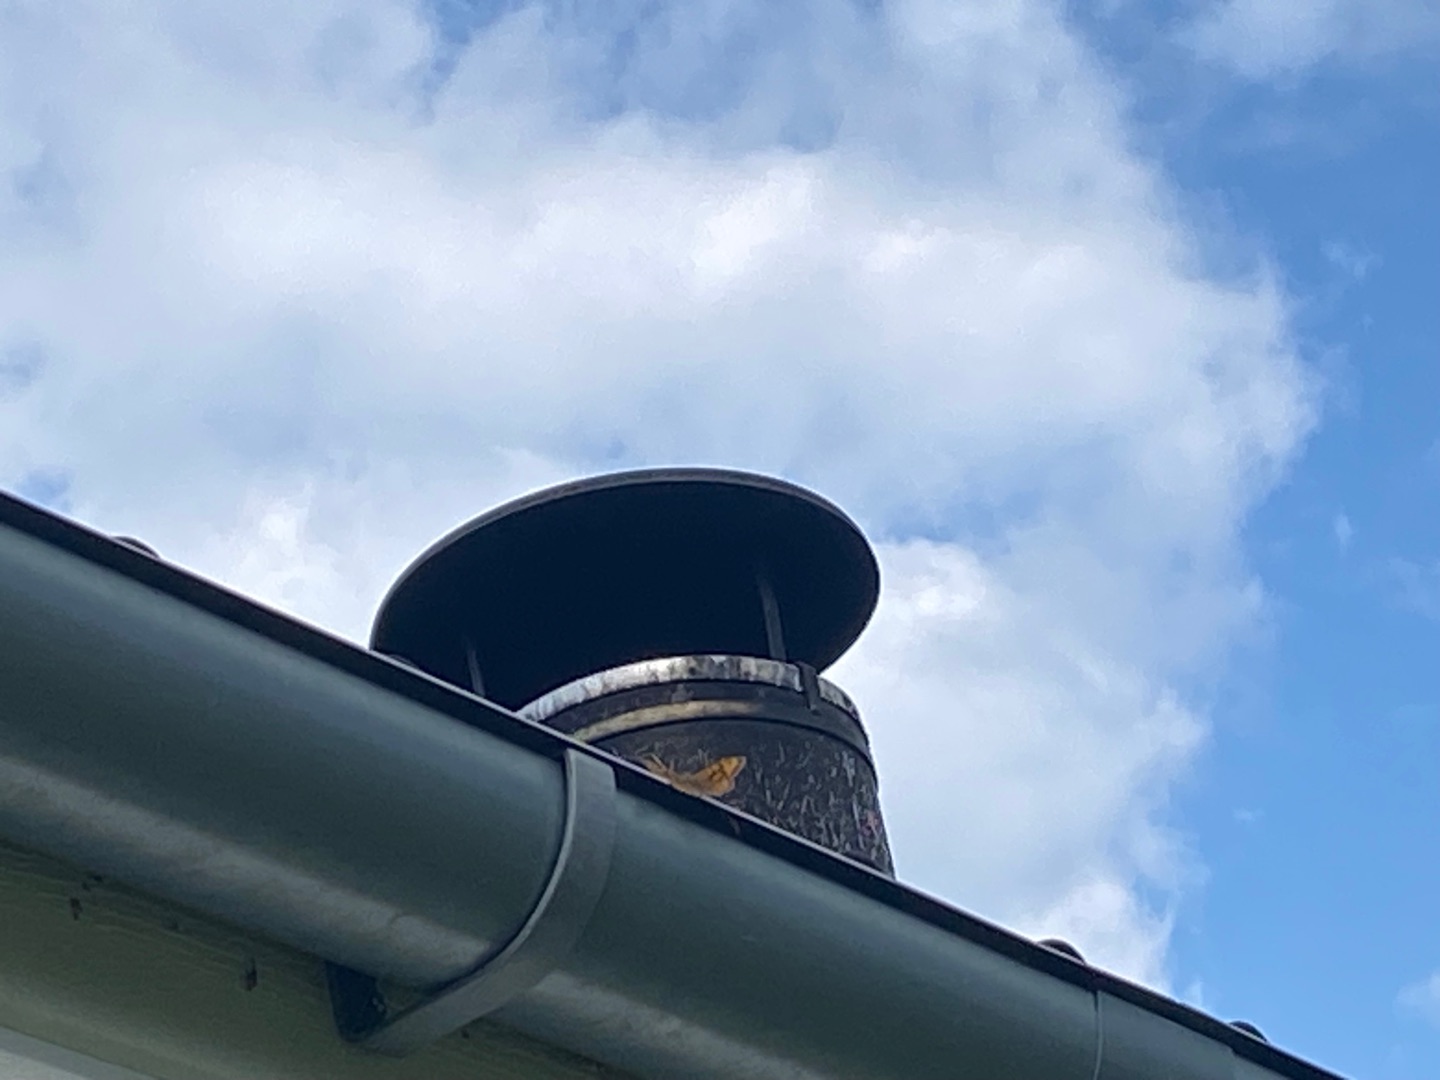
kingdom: Animalia
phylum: Arthropoda
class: Insecta
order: Lepidoptera
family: Nymphalidae
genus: Pararge
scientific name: Pararge Lasiommata megera
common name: Vejrandøje
